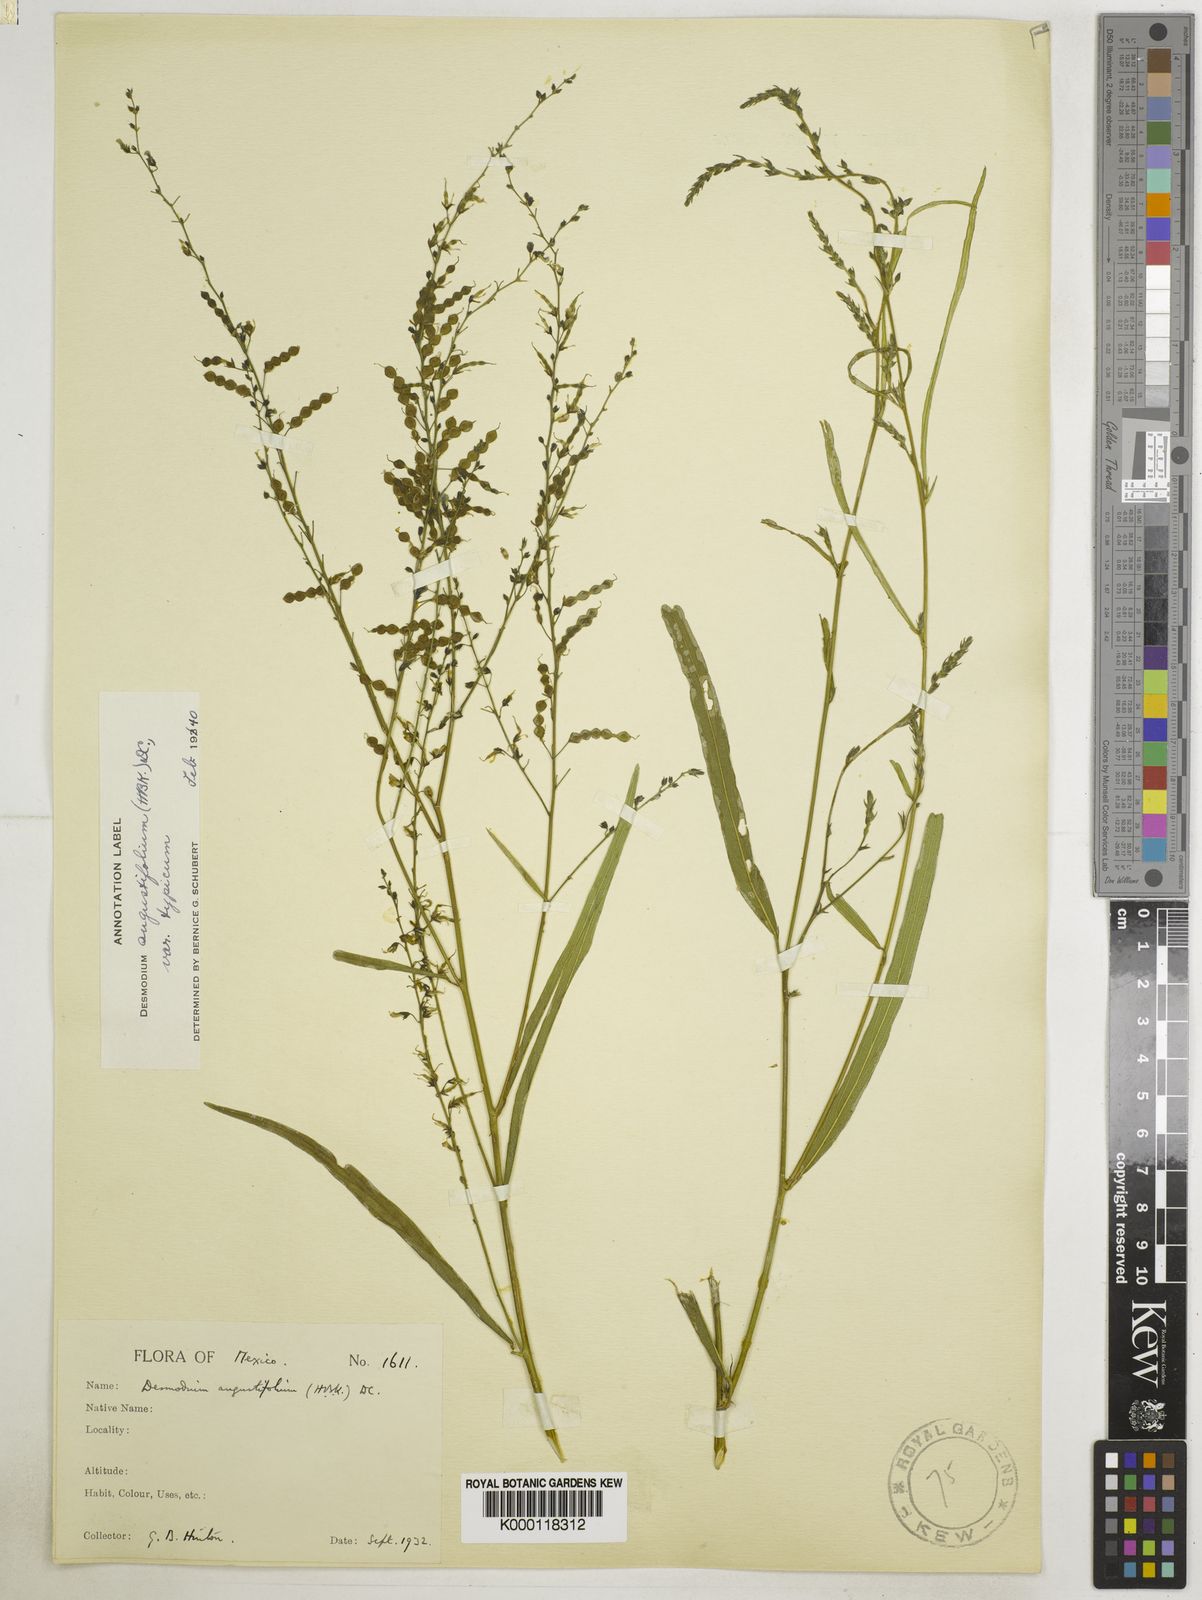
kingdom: Plantae
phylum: Tracheophyta
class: Magnoliopsida
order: Fabales
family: Fabaceae
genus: Desmodium
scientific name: Desmodium angustifolium
